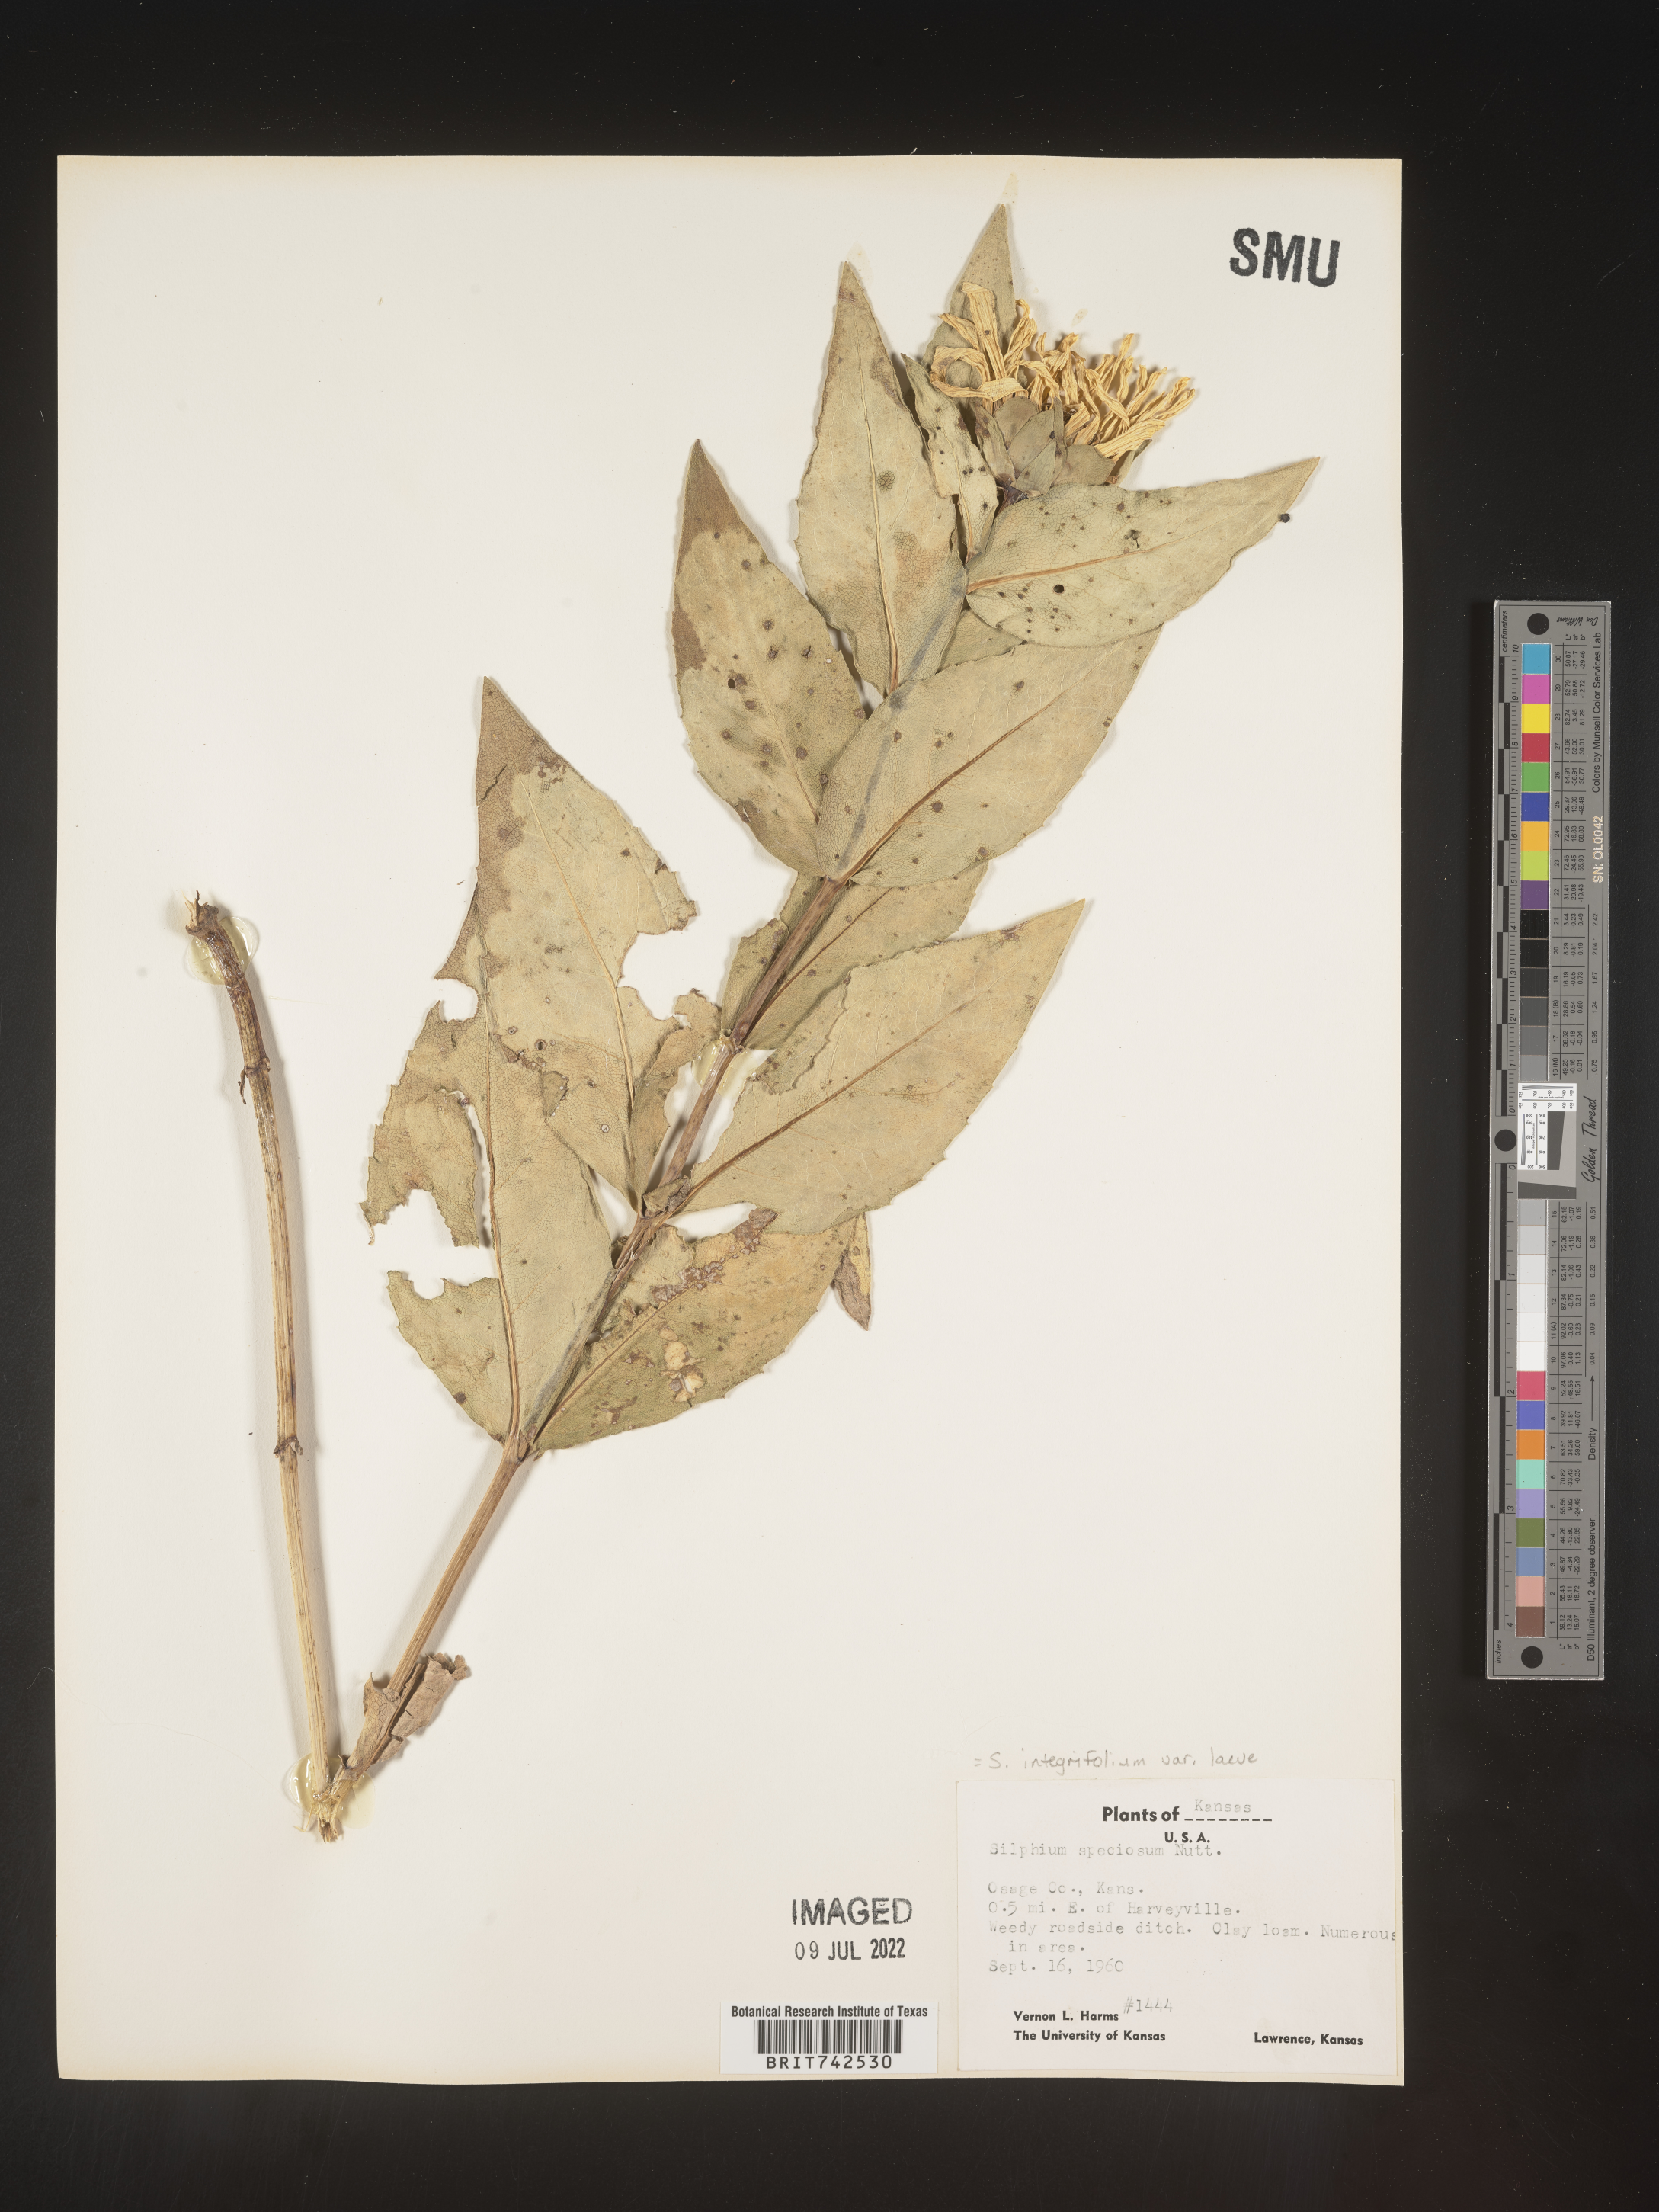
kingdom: Plantae
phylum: Tracheophyta
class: Magnoliopsida
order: Asterales
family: Asteraceae
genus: Silphium
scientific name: Silphium integrifolium
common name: Whole-leaf rosinweed
